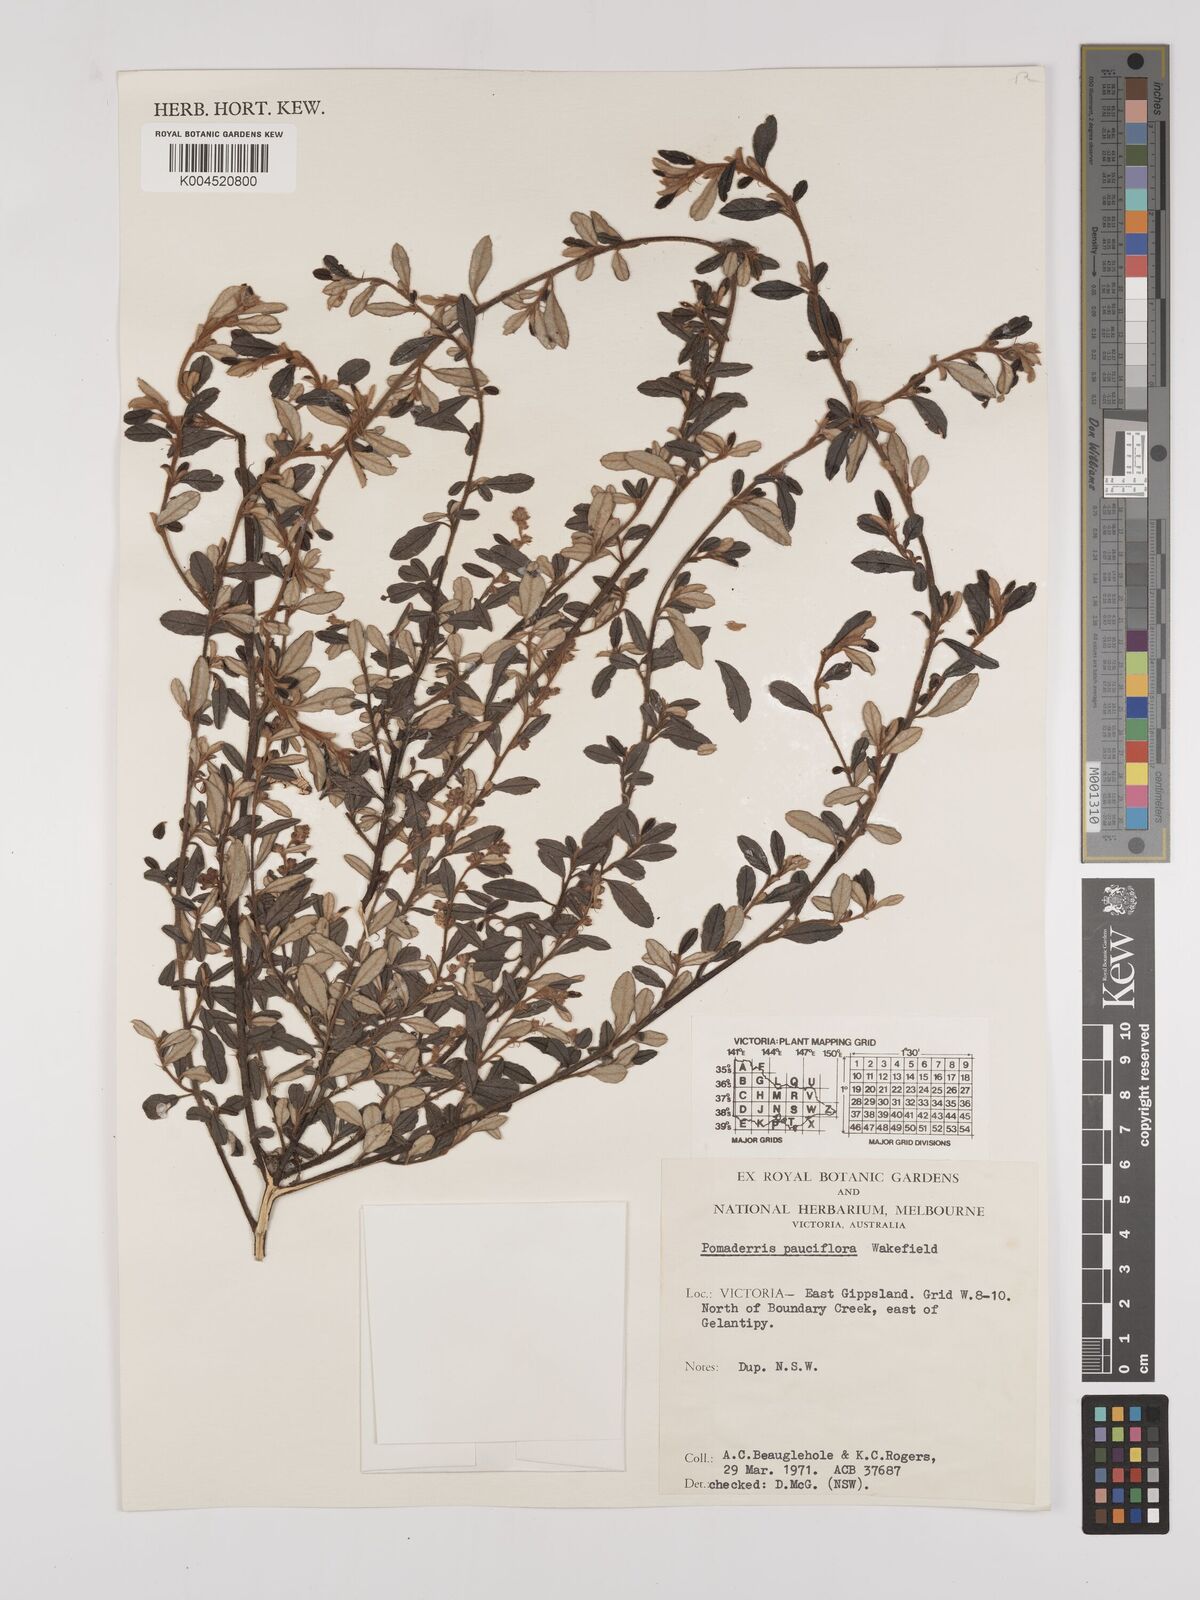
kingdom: Plantae
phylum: Tracheophyta
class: Magnoliopsida
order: Rosales
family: Rhamnaceae
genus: Pomaderris
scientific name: Pomaderris pauciflora
